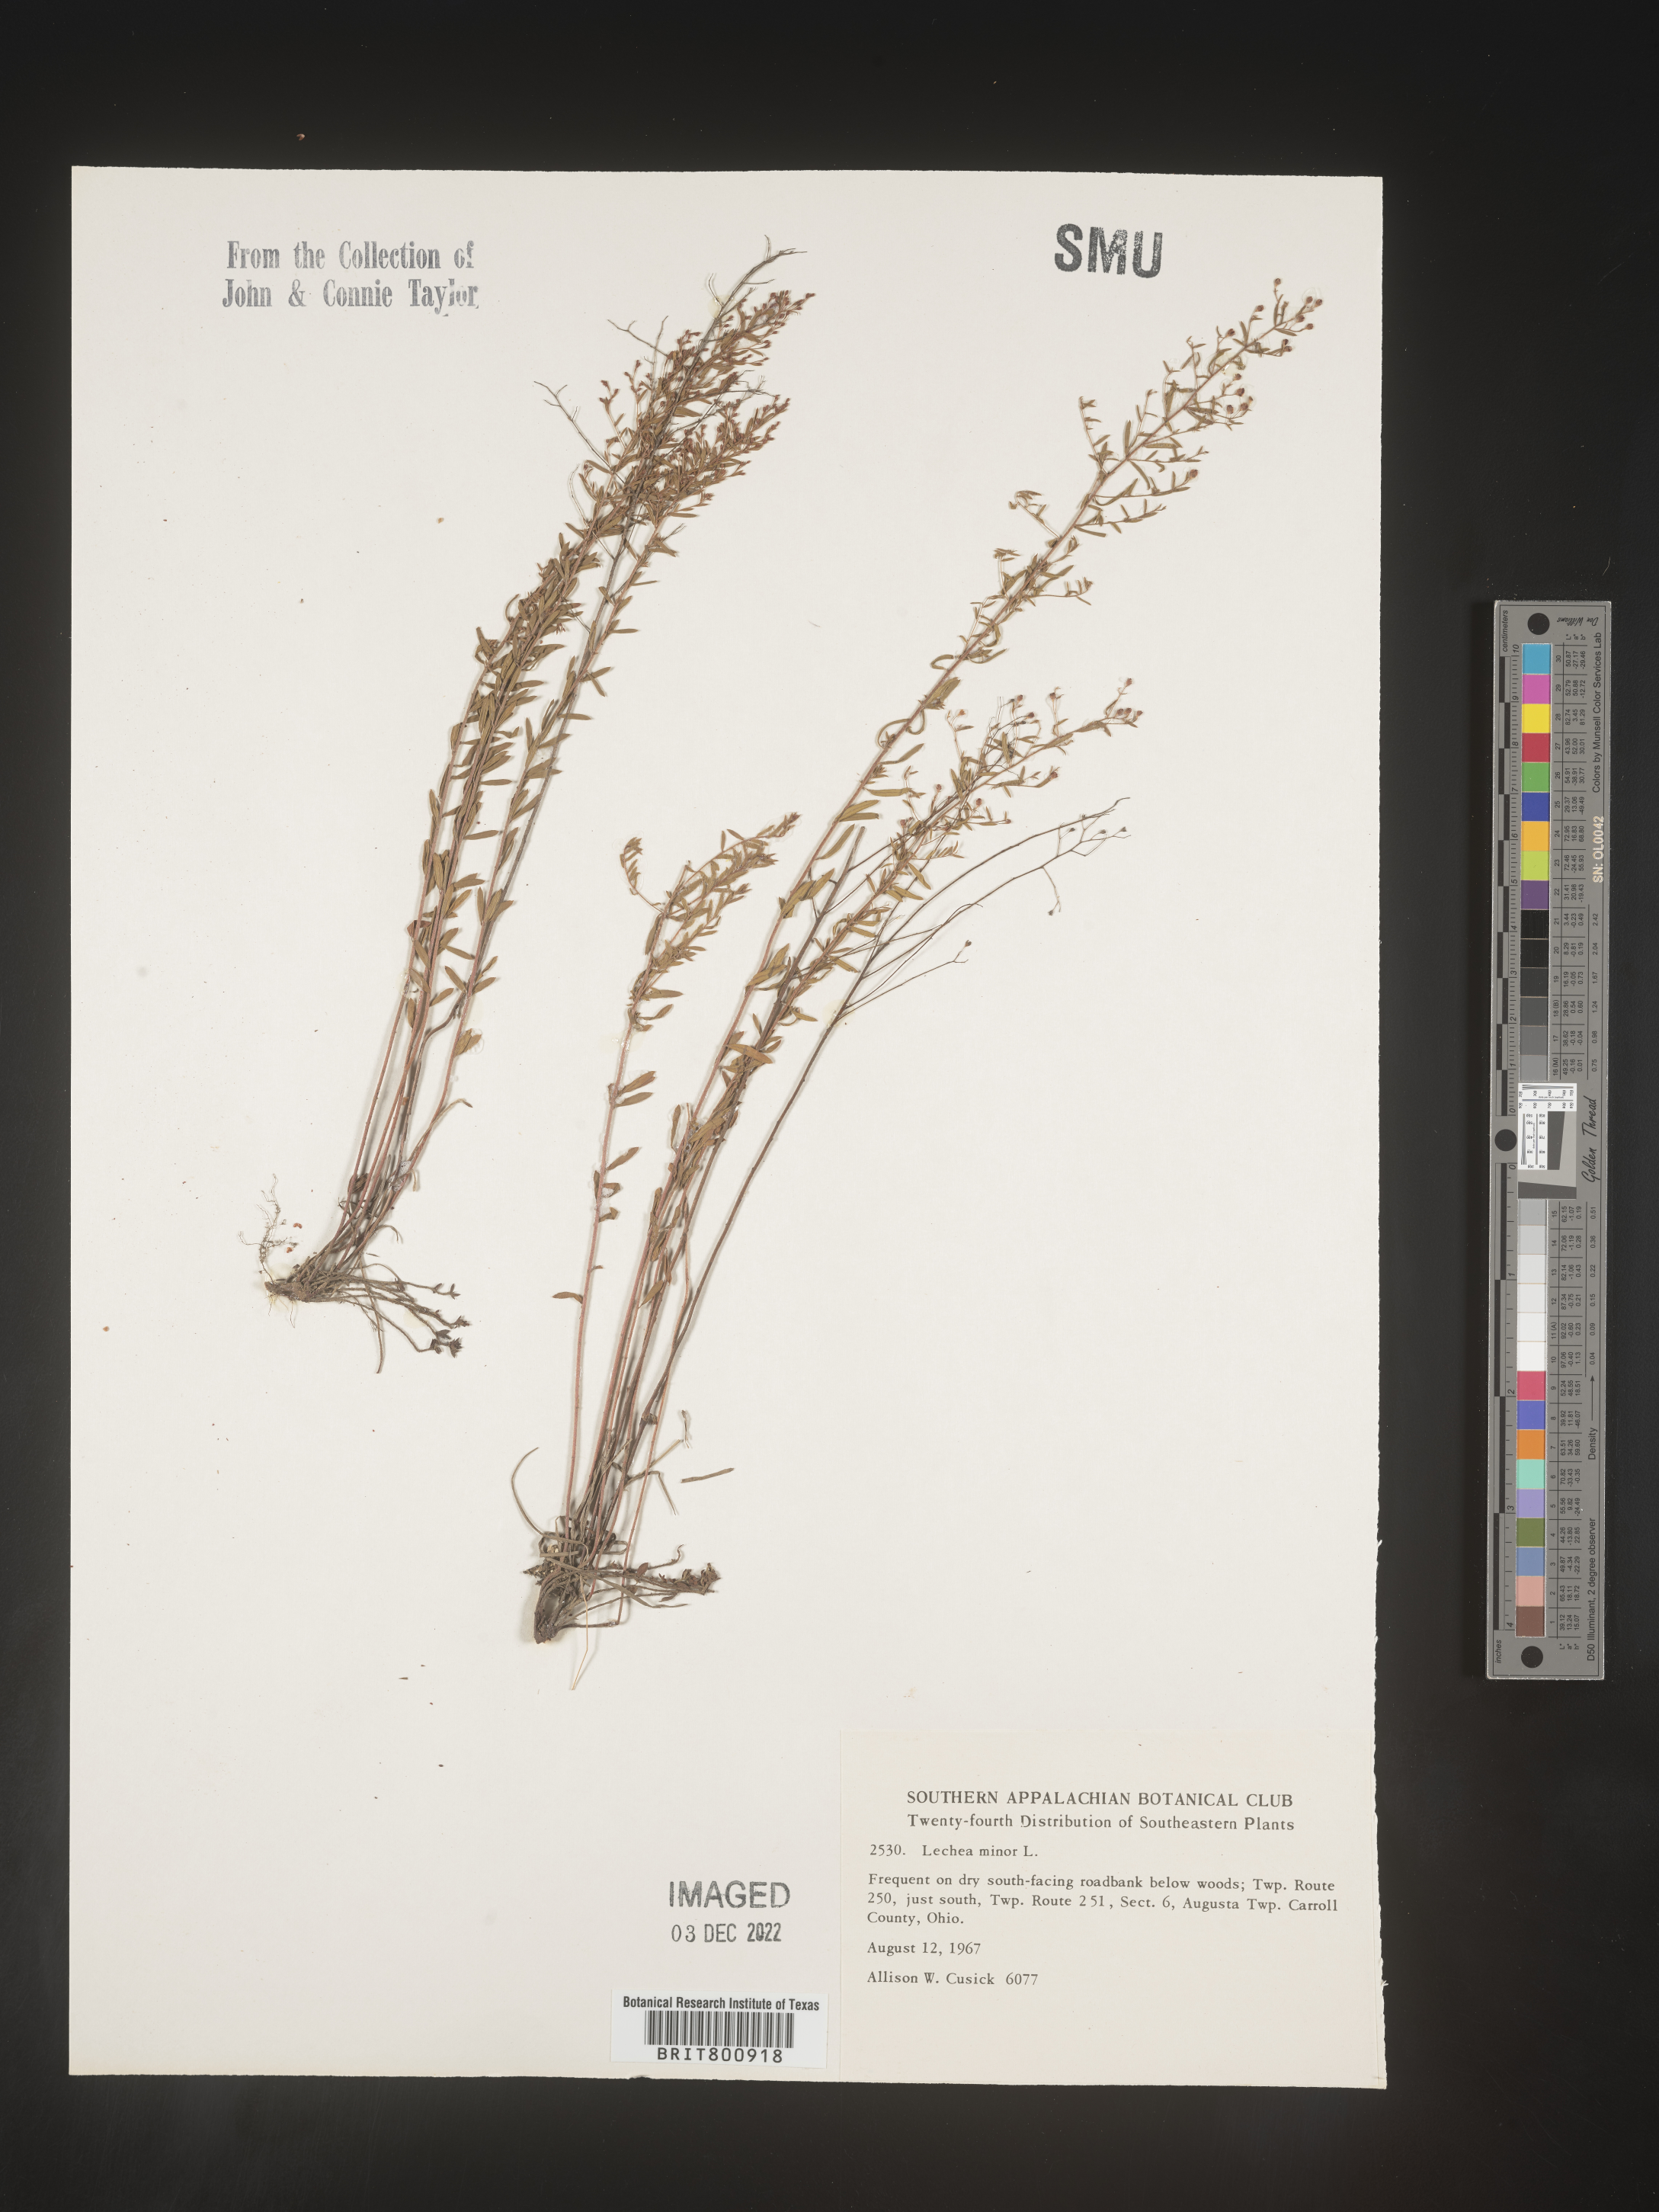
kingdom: Plantae
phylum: Tracheophyta
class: Magnoliopsida
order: Malvales
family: Cistaceae
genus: Lechea
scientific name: Lechea minor
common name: Thyme-leaf pinweed
